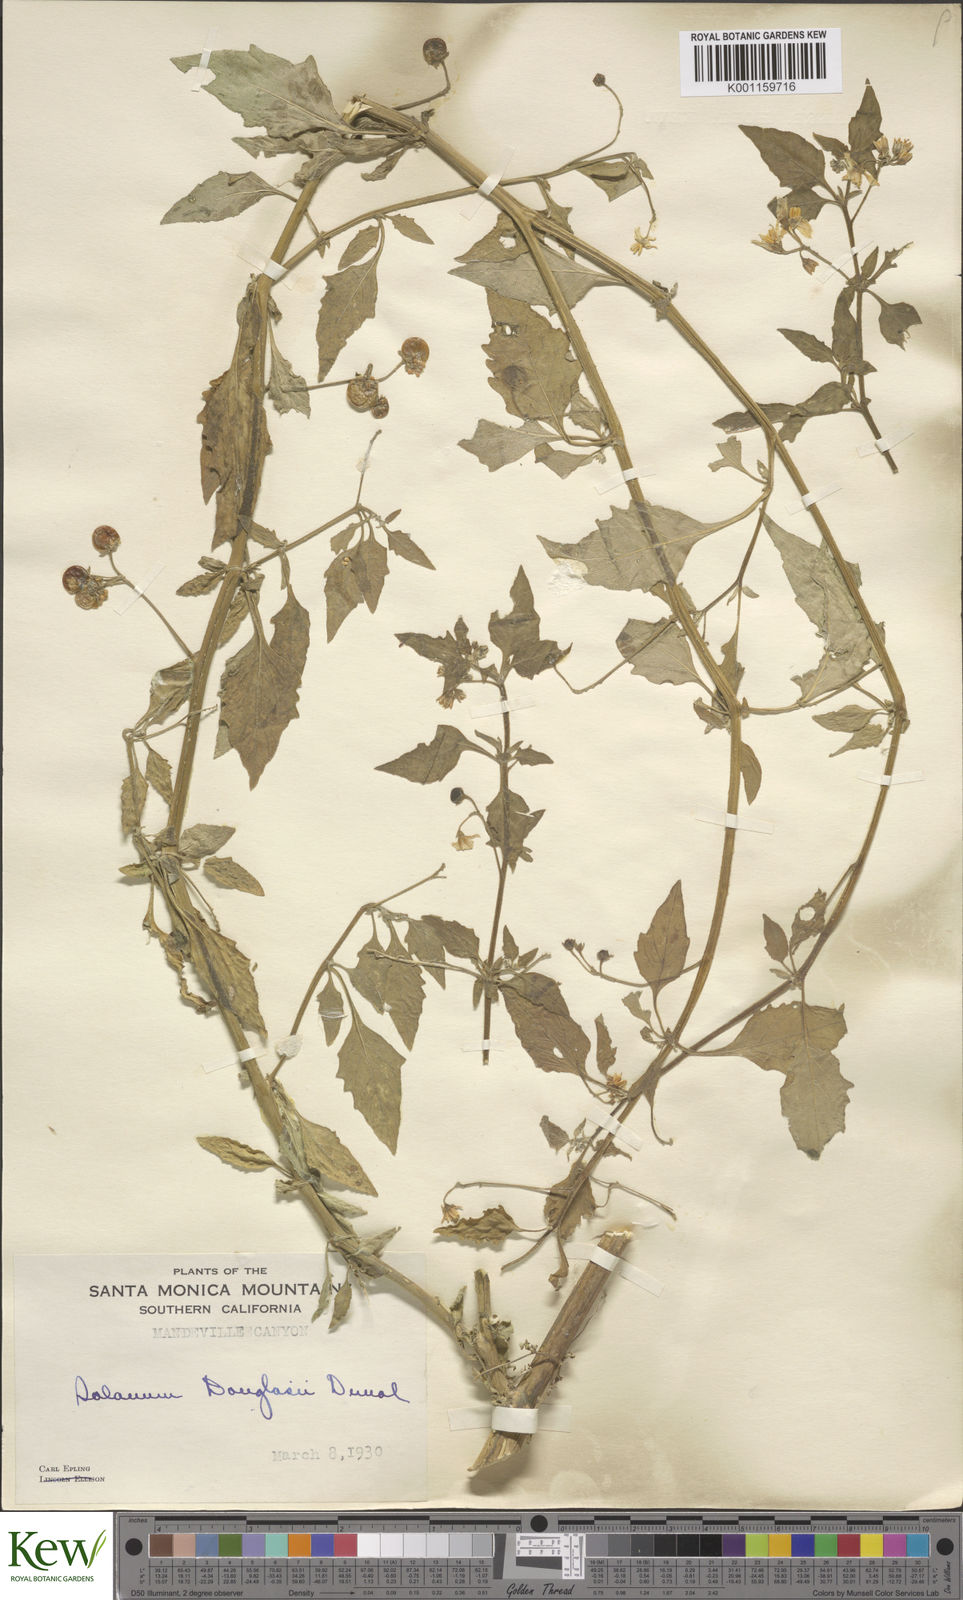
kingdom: Plantae
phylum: Tracheophyta
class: Magnoliopsida
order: Solanales
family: Solanaceae
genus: Solanum
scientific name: Solanum douglasii
